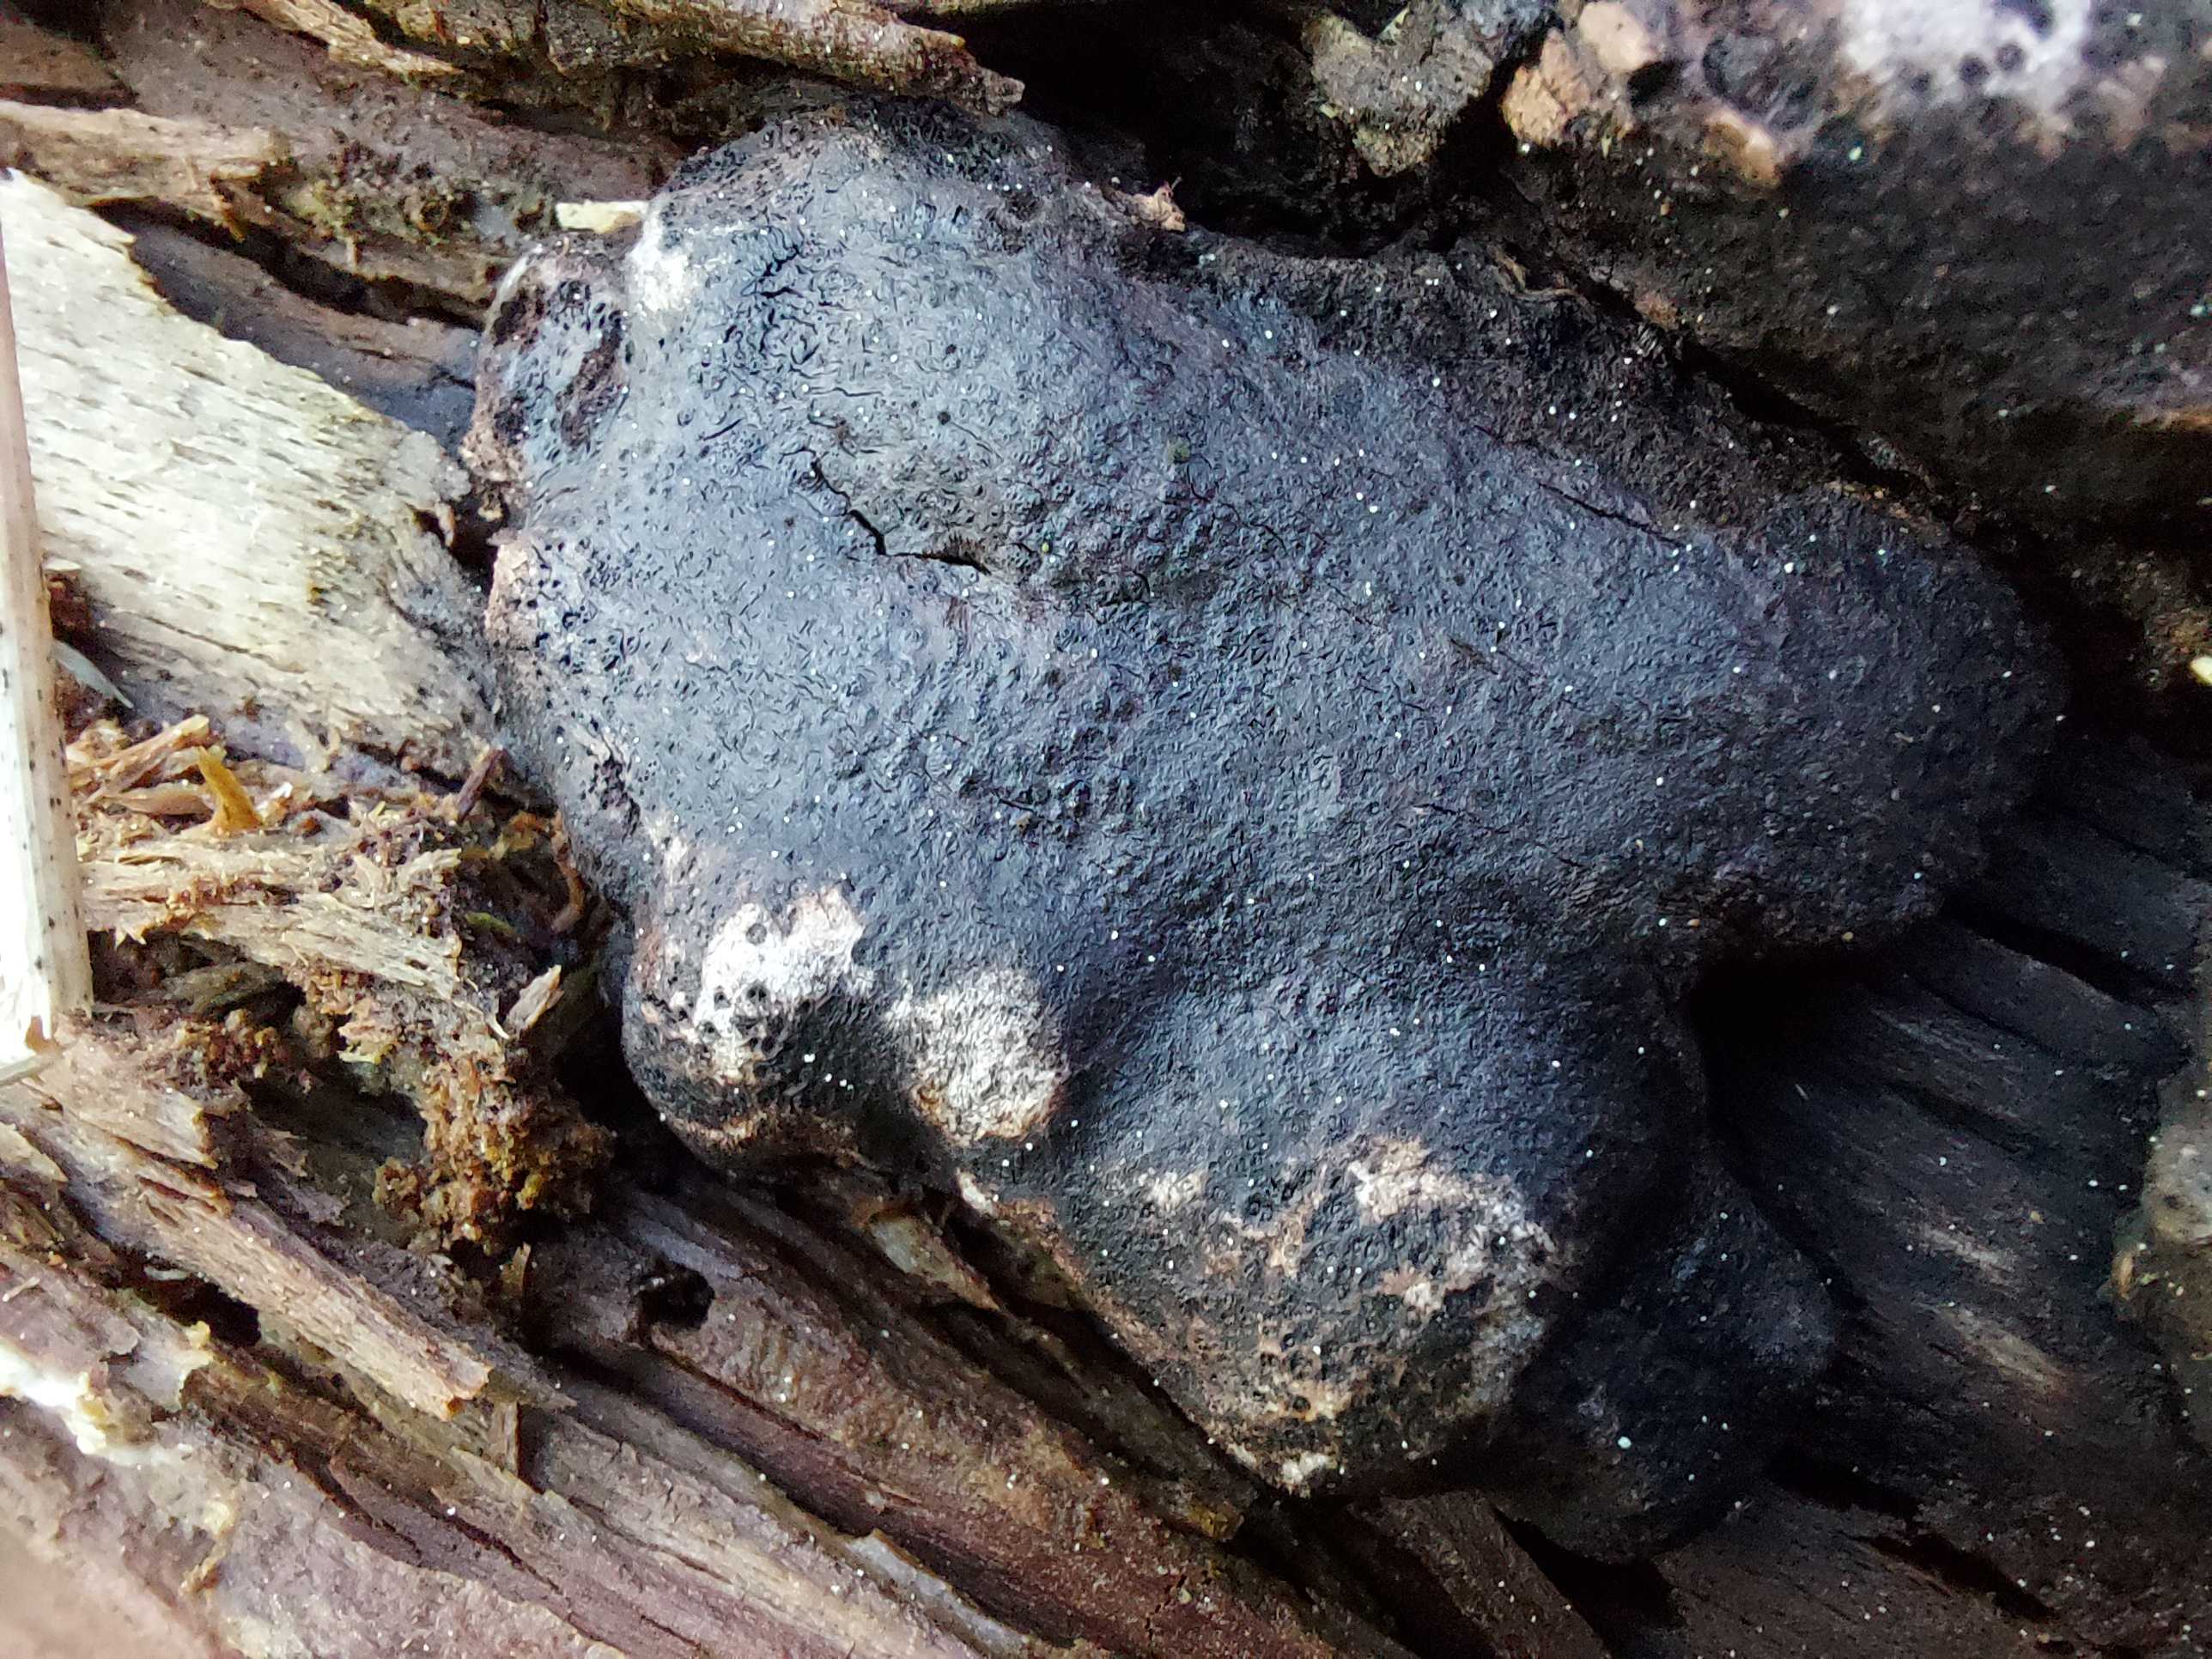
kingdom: Fungi
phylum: Ascomycota
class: Sordariomycetes
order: Boliniales
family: Boliniaceae
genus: Camarops
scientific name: Camarops tubulina
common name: knudret kulsnegl
